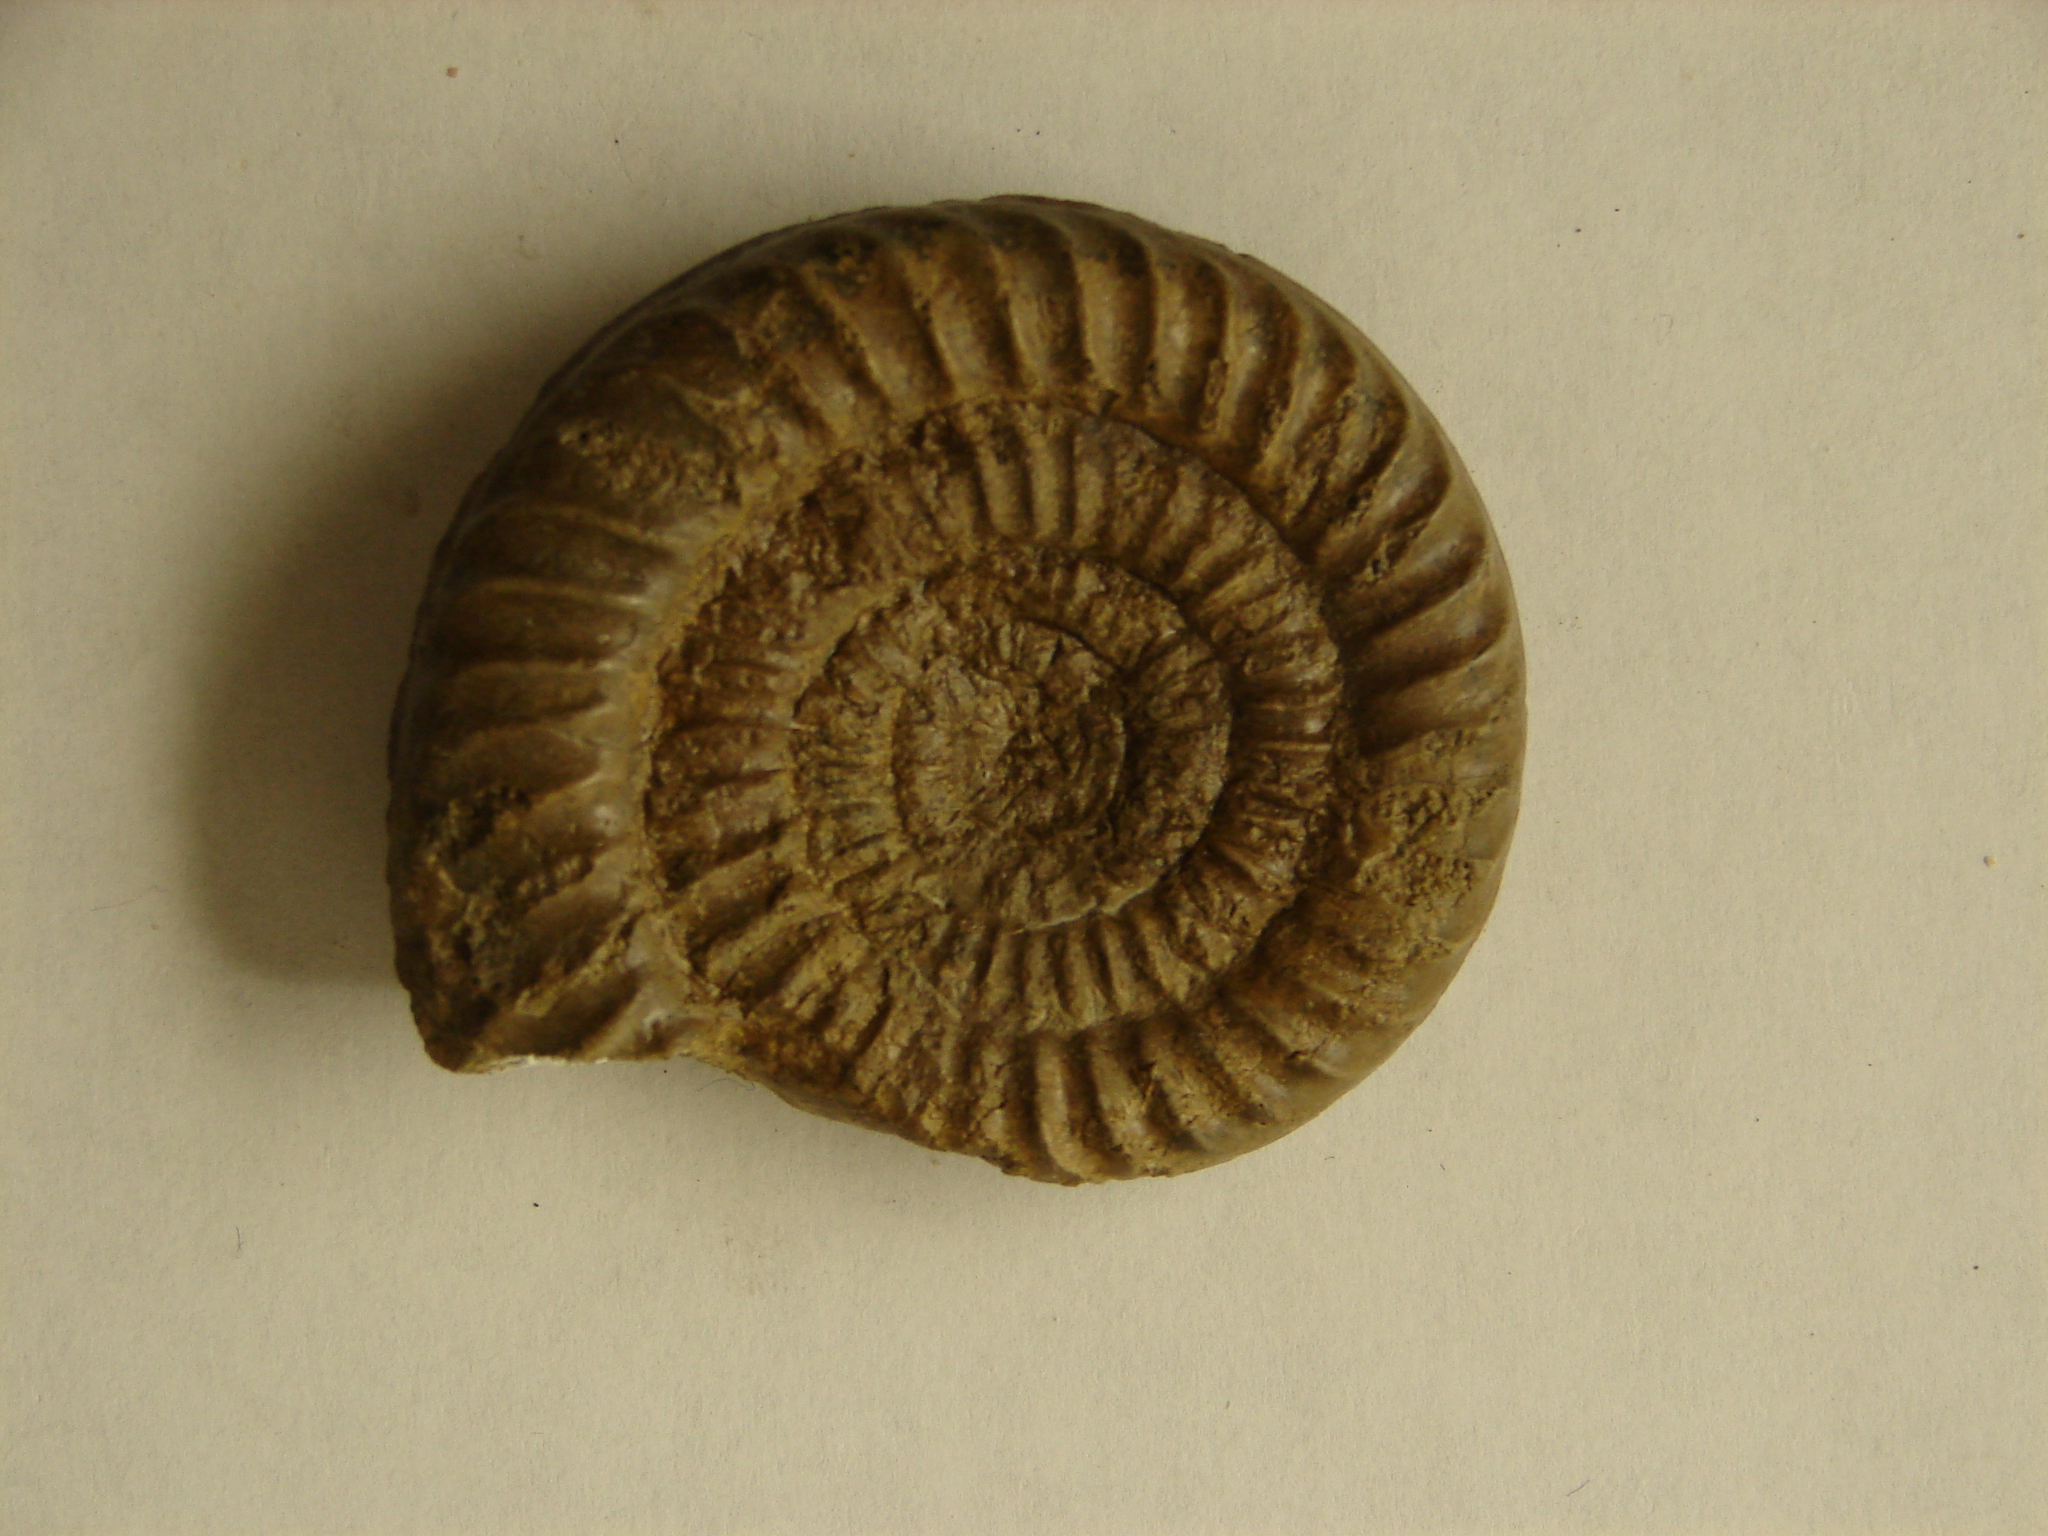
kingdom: Animalia
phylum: Mollusca
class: Cephalopoda
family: Asteroceratidae
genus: Epophioceras
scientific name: Epophioceras landrioti
